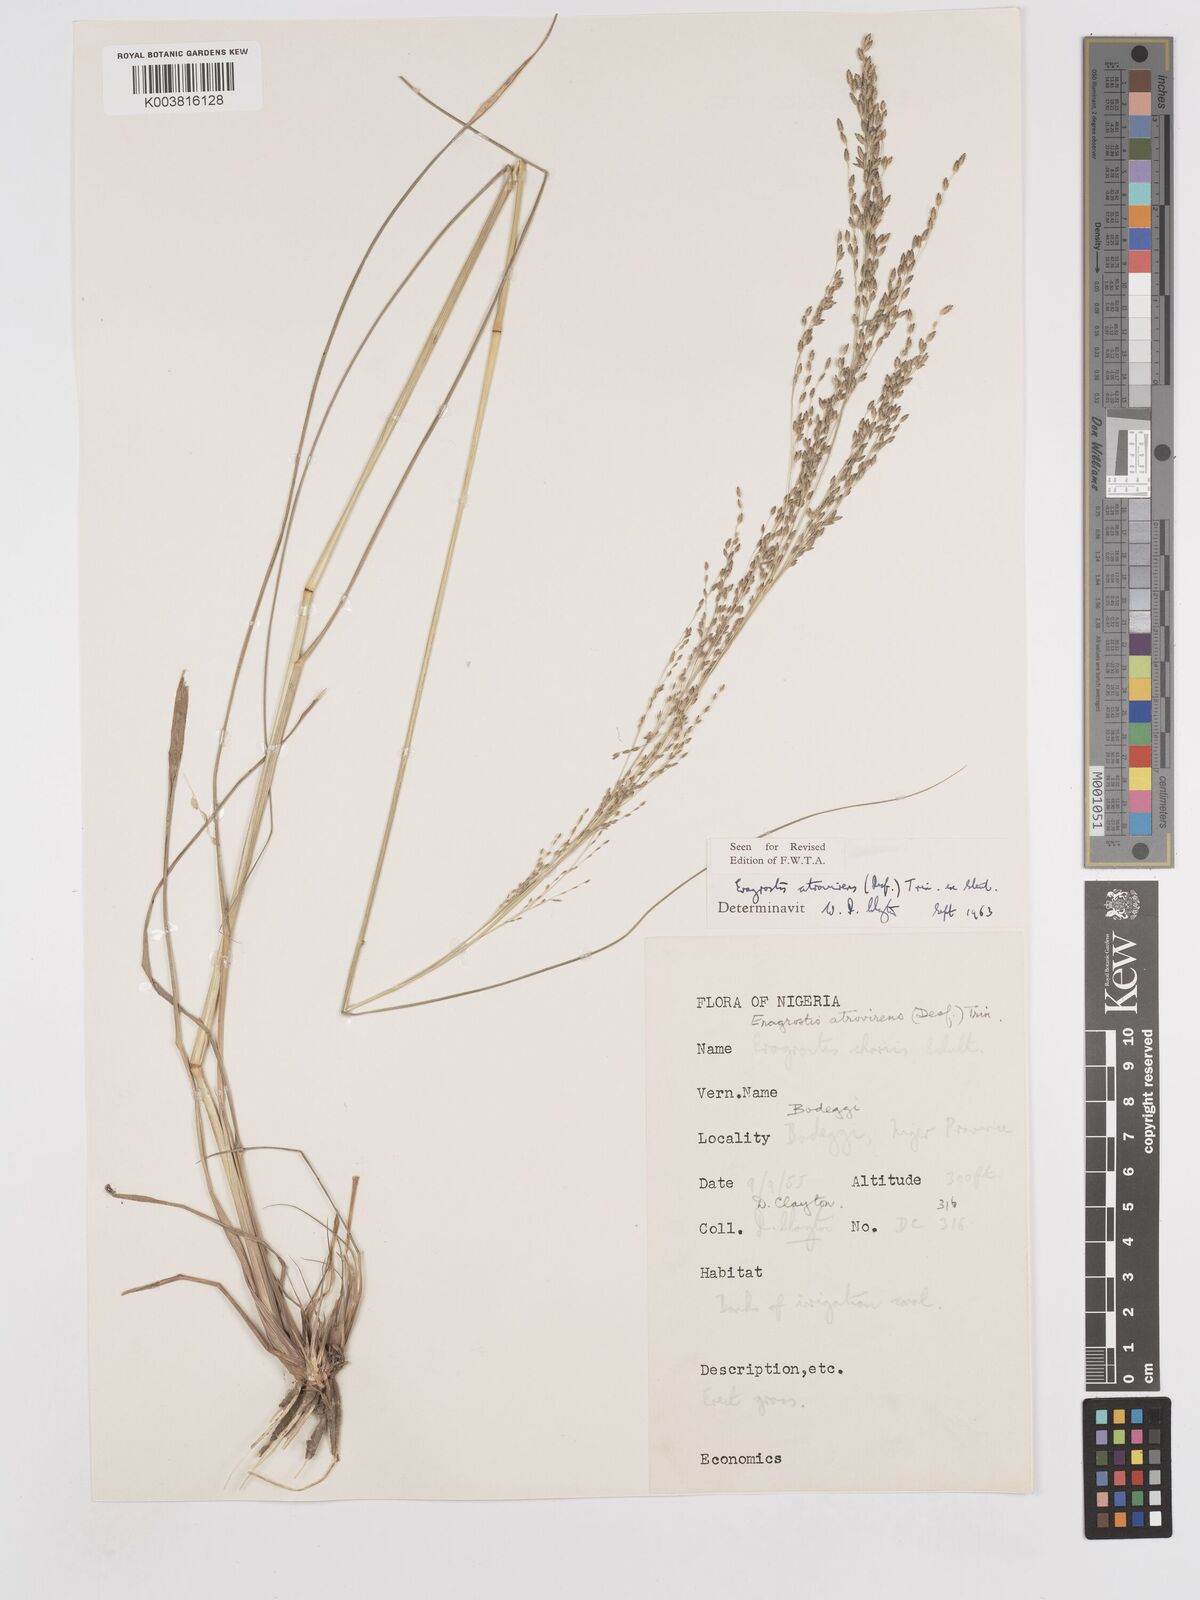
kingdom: Plantae
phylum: Tracheophyta
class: Liliopsida
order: Poales
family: Poaceae
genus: Eragrostis
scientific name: Eragrostis atrovirens
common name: Thalia lovegrass
